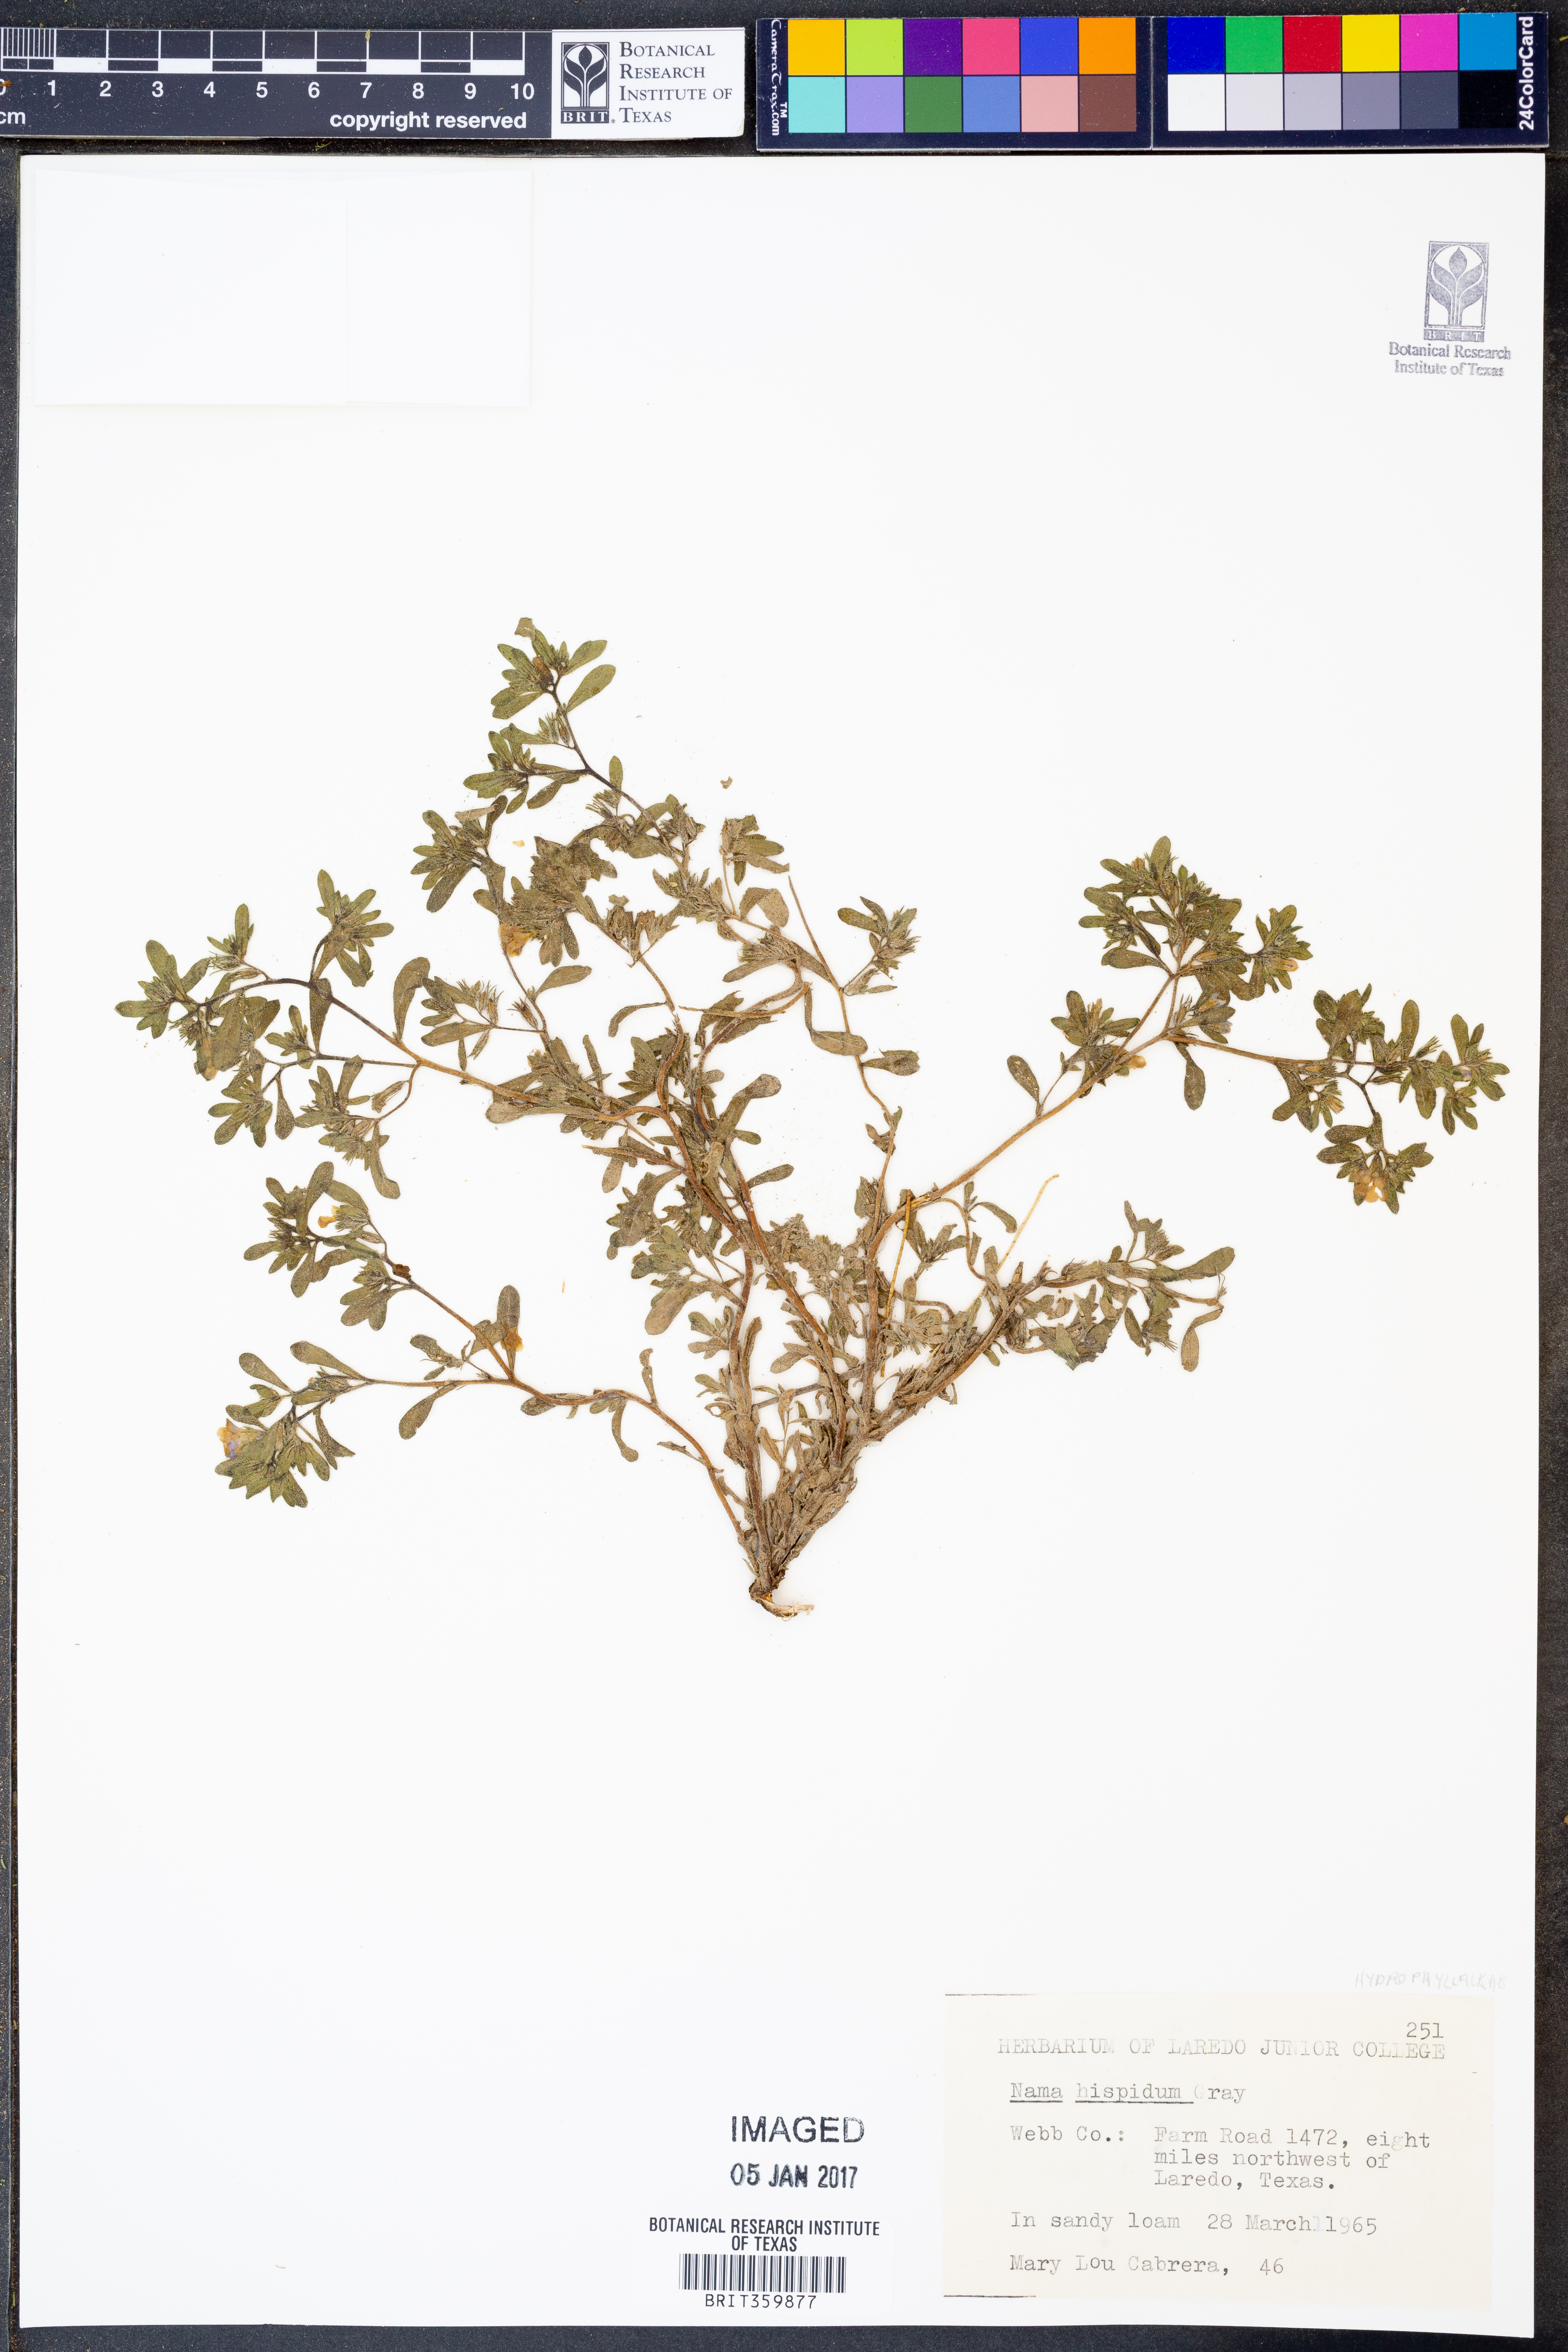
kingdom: Plantae
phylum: Tracheophyta
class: Magnoliopsida
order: Boraginales
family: Namaceae
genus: Nama
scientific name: Nama hispida
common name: Bristly nama
